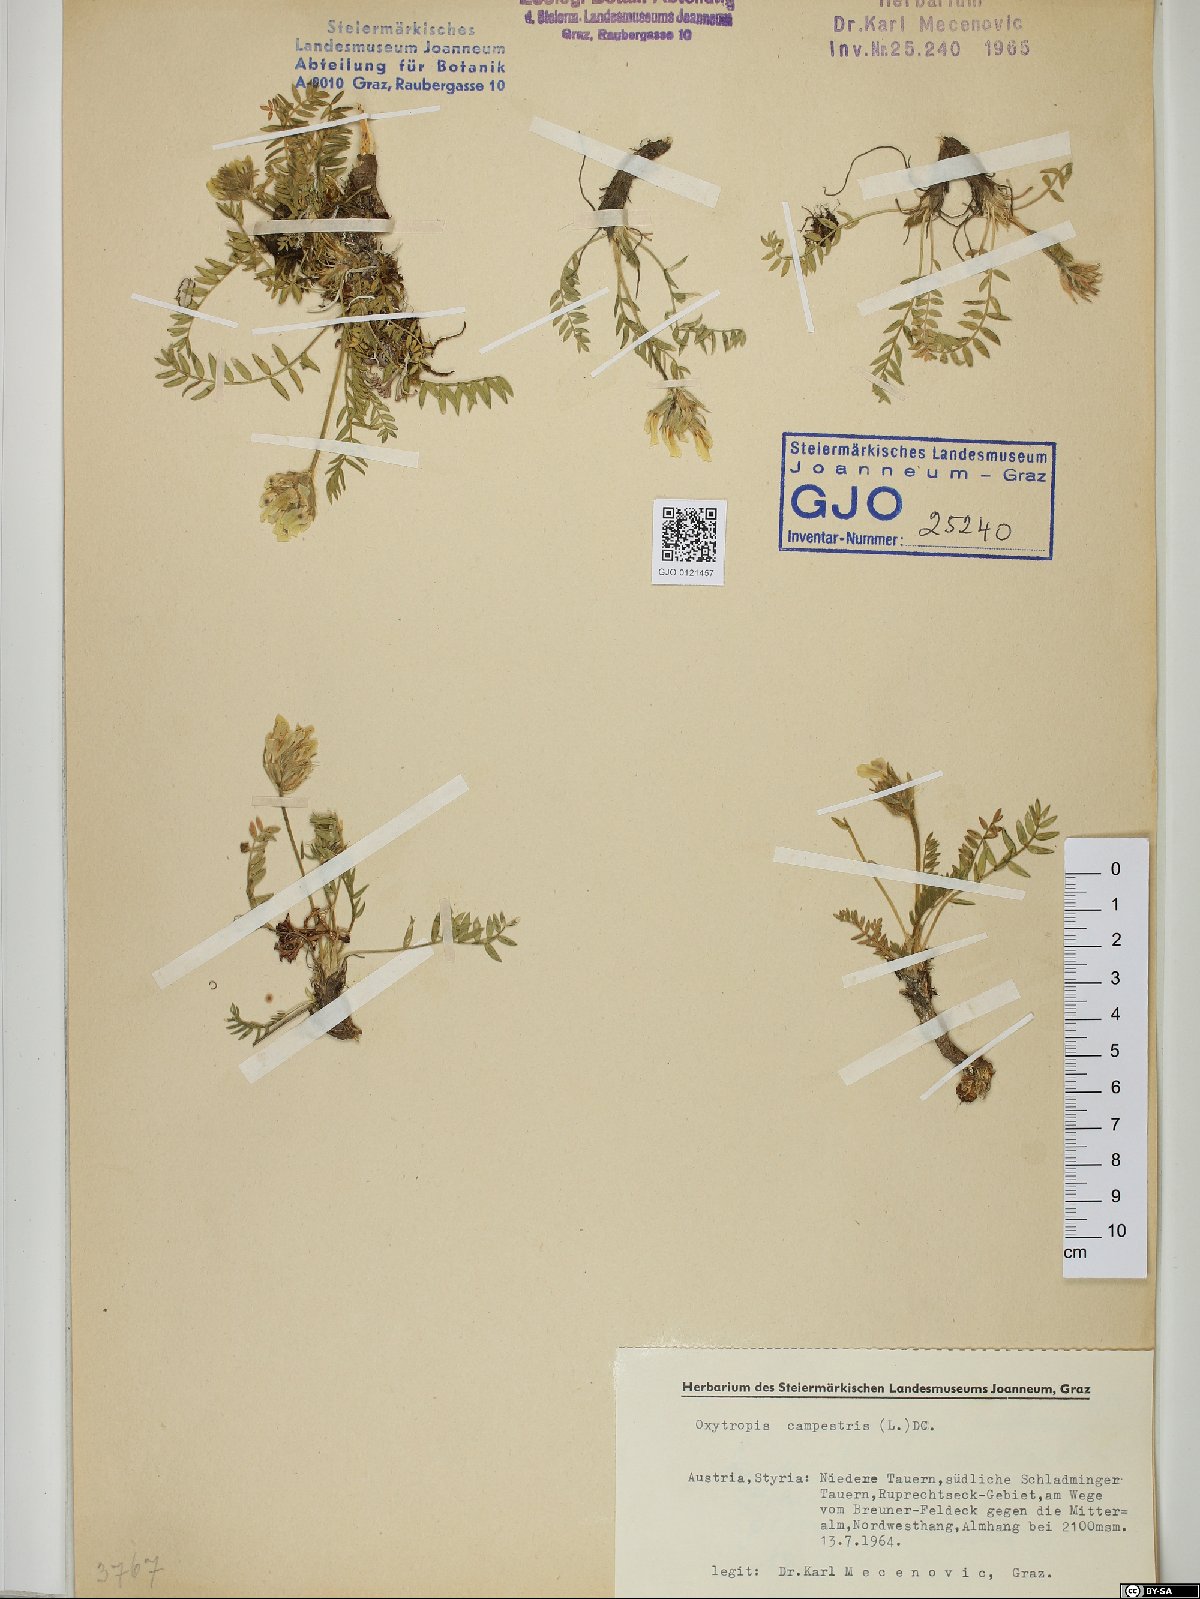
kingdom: Plantae
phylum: Tracheophyta
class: Magnoliopsida
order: Fabales
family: Fabaceae
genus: Oxytropis
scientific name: Oxytropis campestris
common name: Field locoweed
